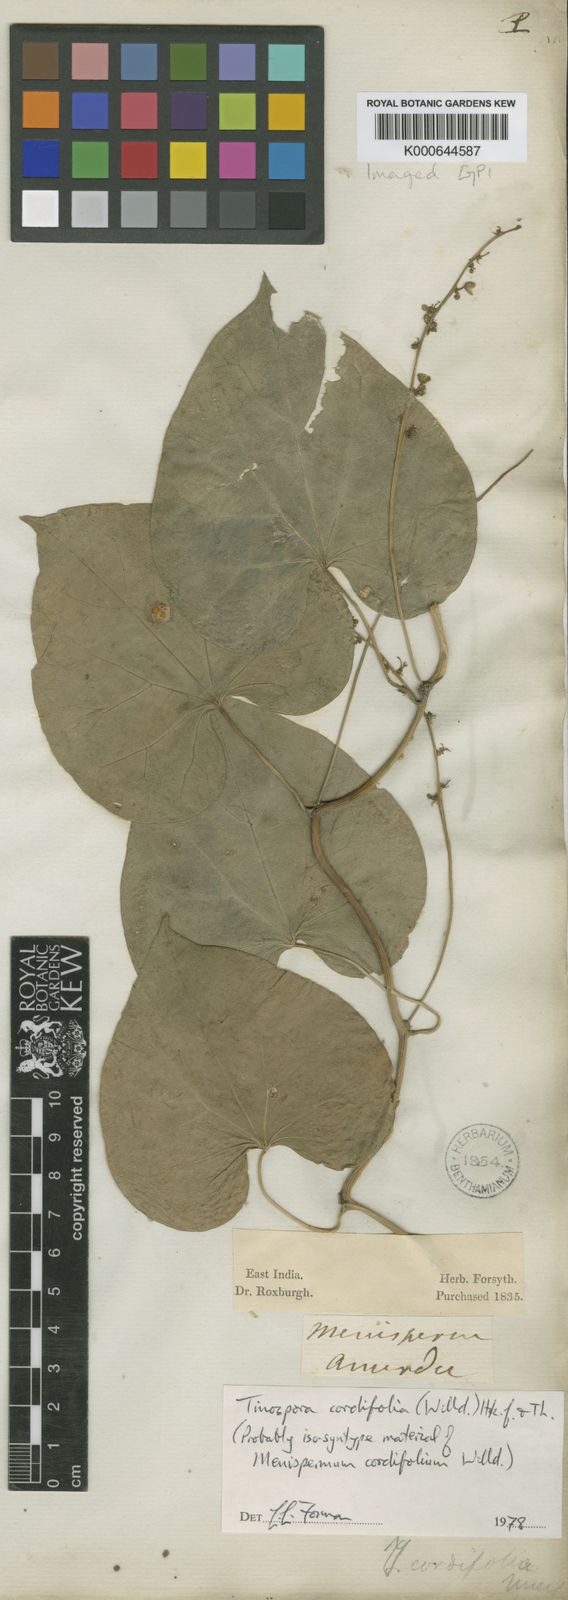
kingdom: Plantae
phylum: Tracheophyta
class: Magnoliopsida
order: Ranunculales
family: Menispermaceae
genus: Tinospora
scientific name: Tinospora cordifolia
